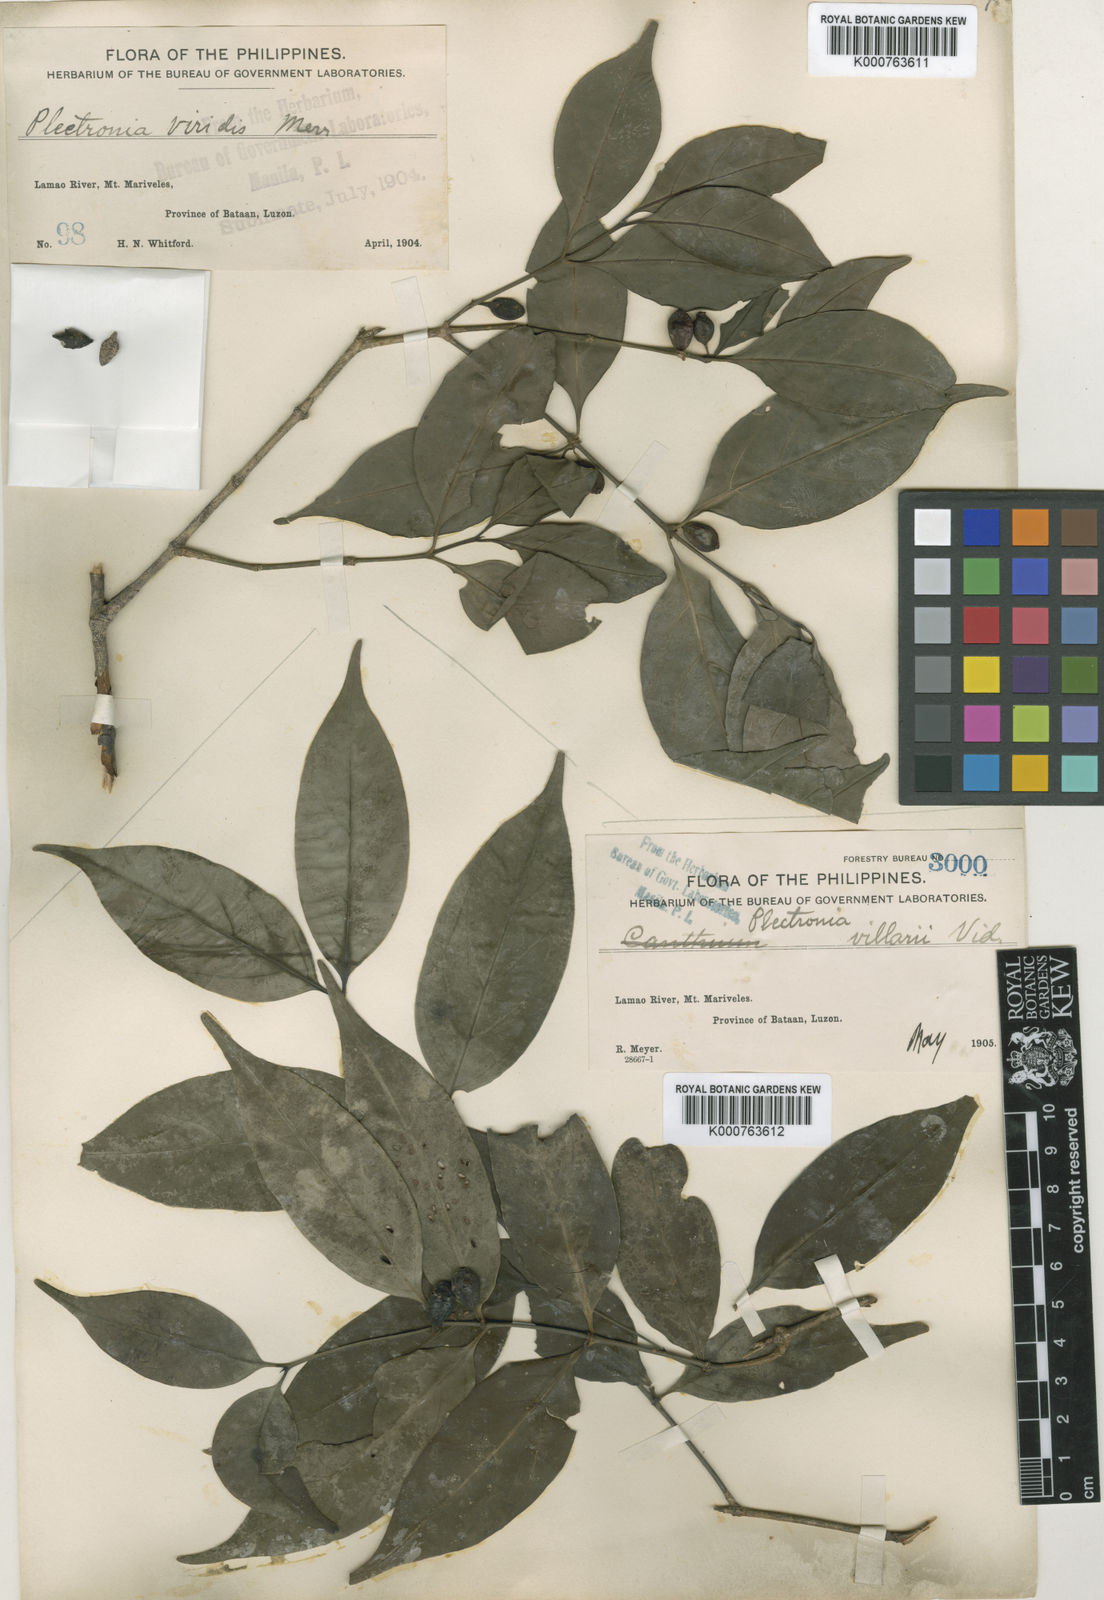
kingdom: Plantae
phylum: Tracheophyta
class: Magnoliopsida
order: Gentianales
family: Rubiaceae
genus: Dibridsonia
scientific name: Dibridsonia conferta
